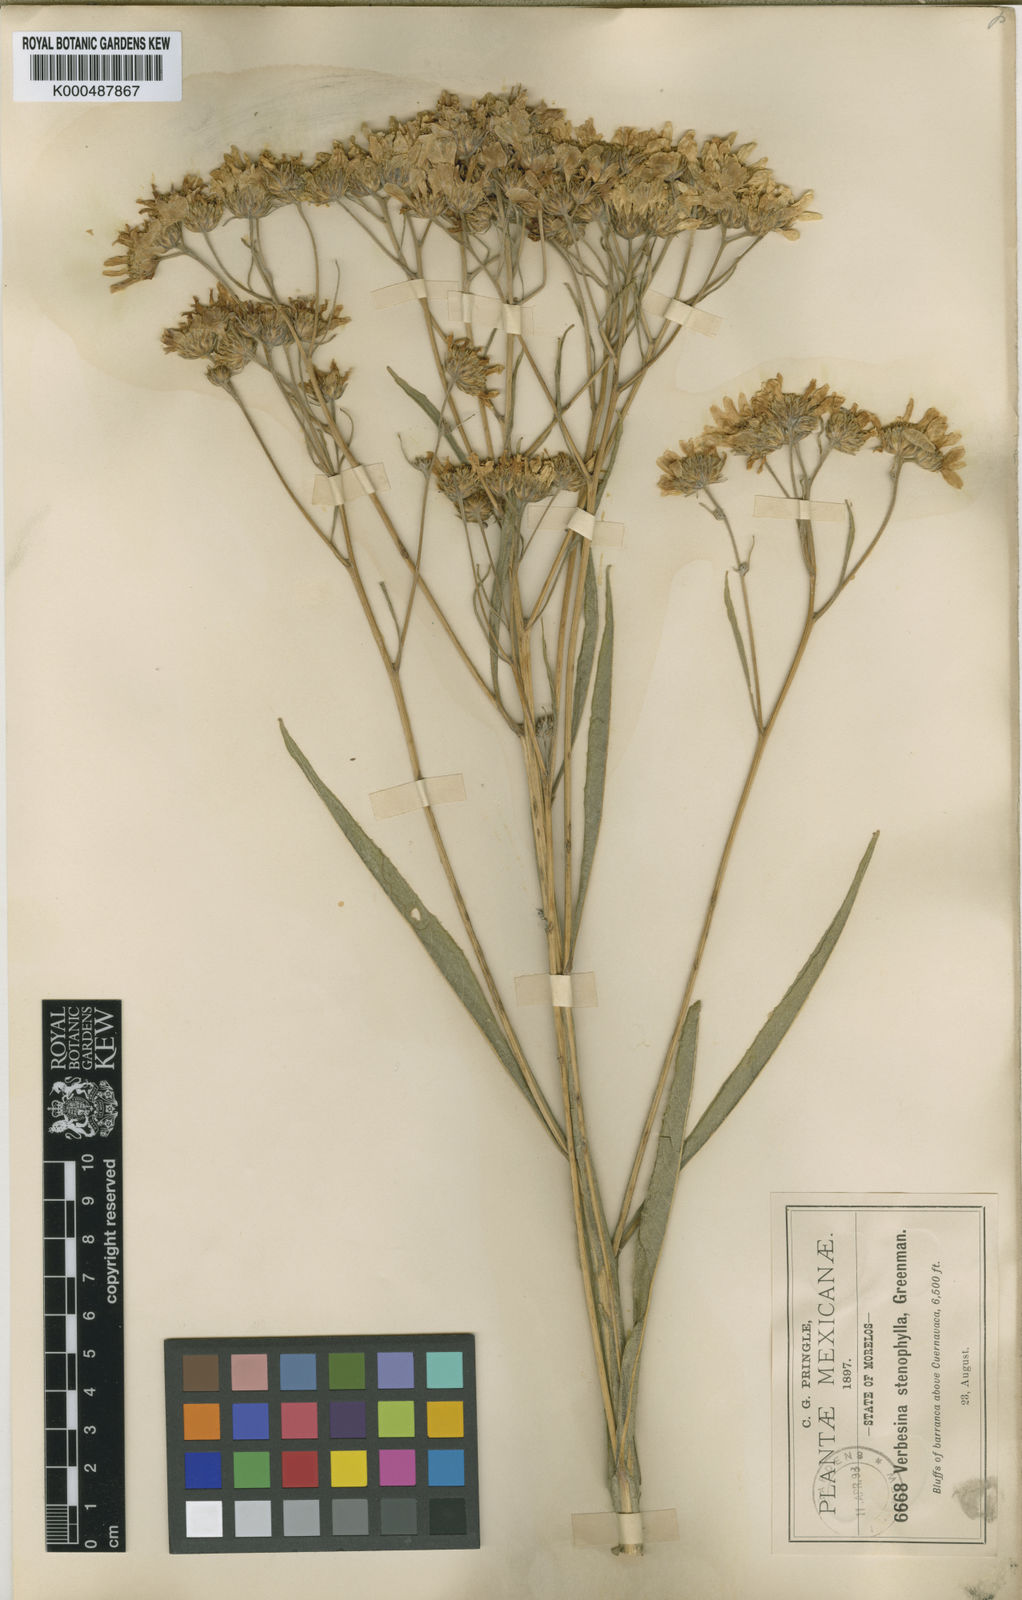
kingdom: Plantae
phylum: Tracheophyta
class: Magnoliopsida
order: Asterales
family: Asteraceae
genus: Verbesina
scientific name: Verbesina stenophylla
